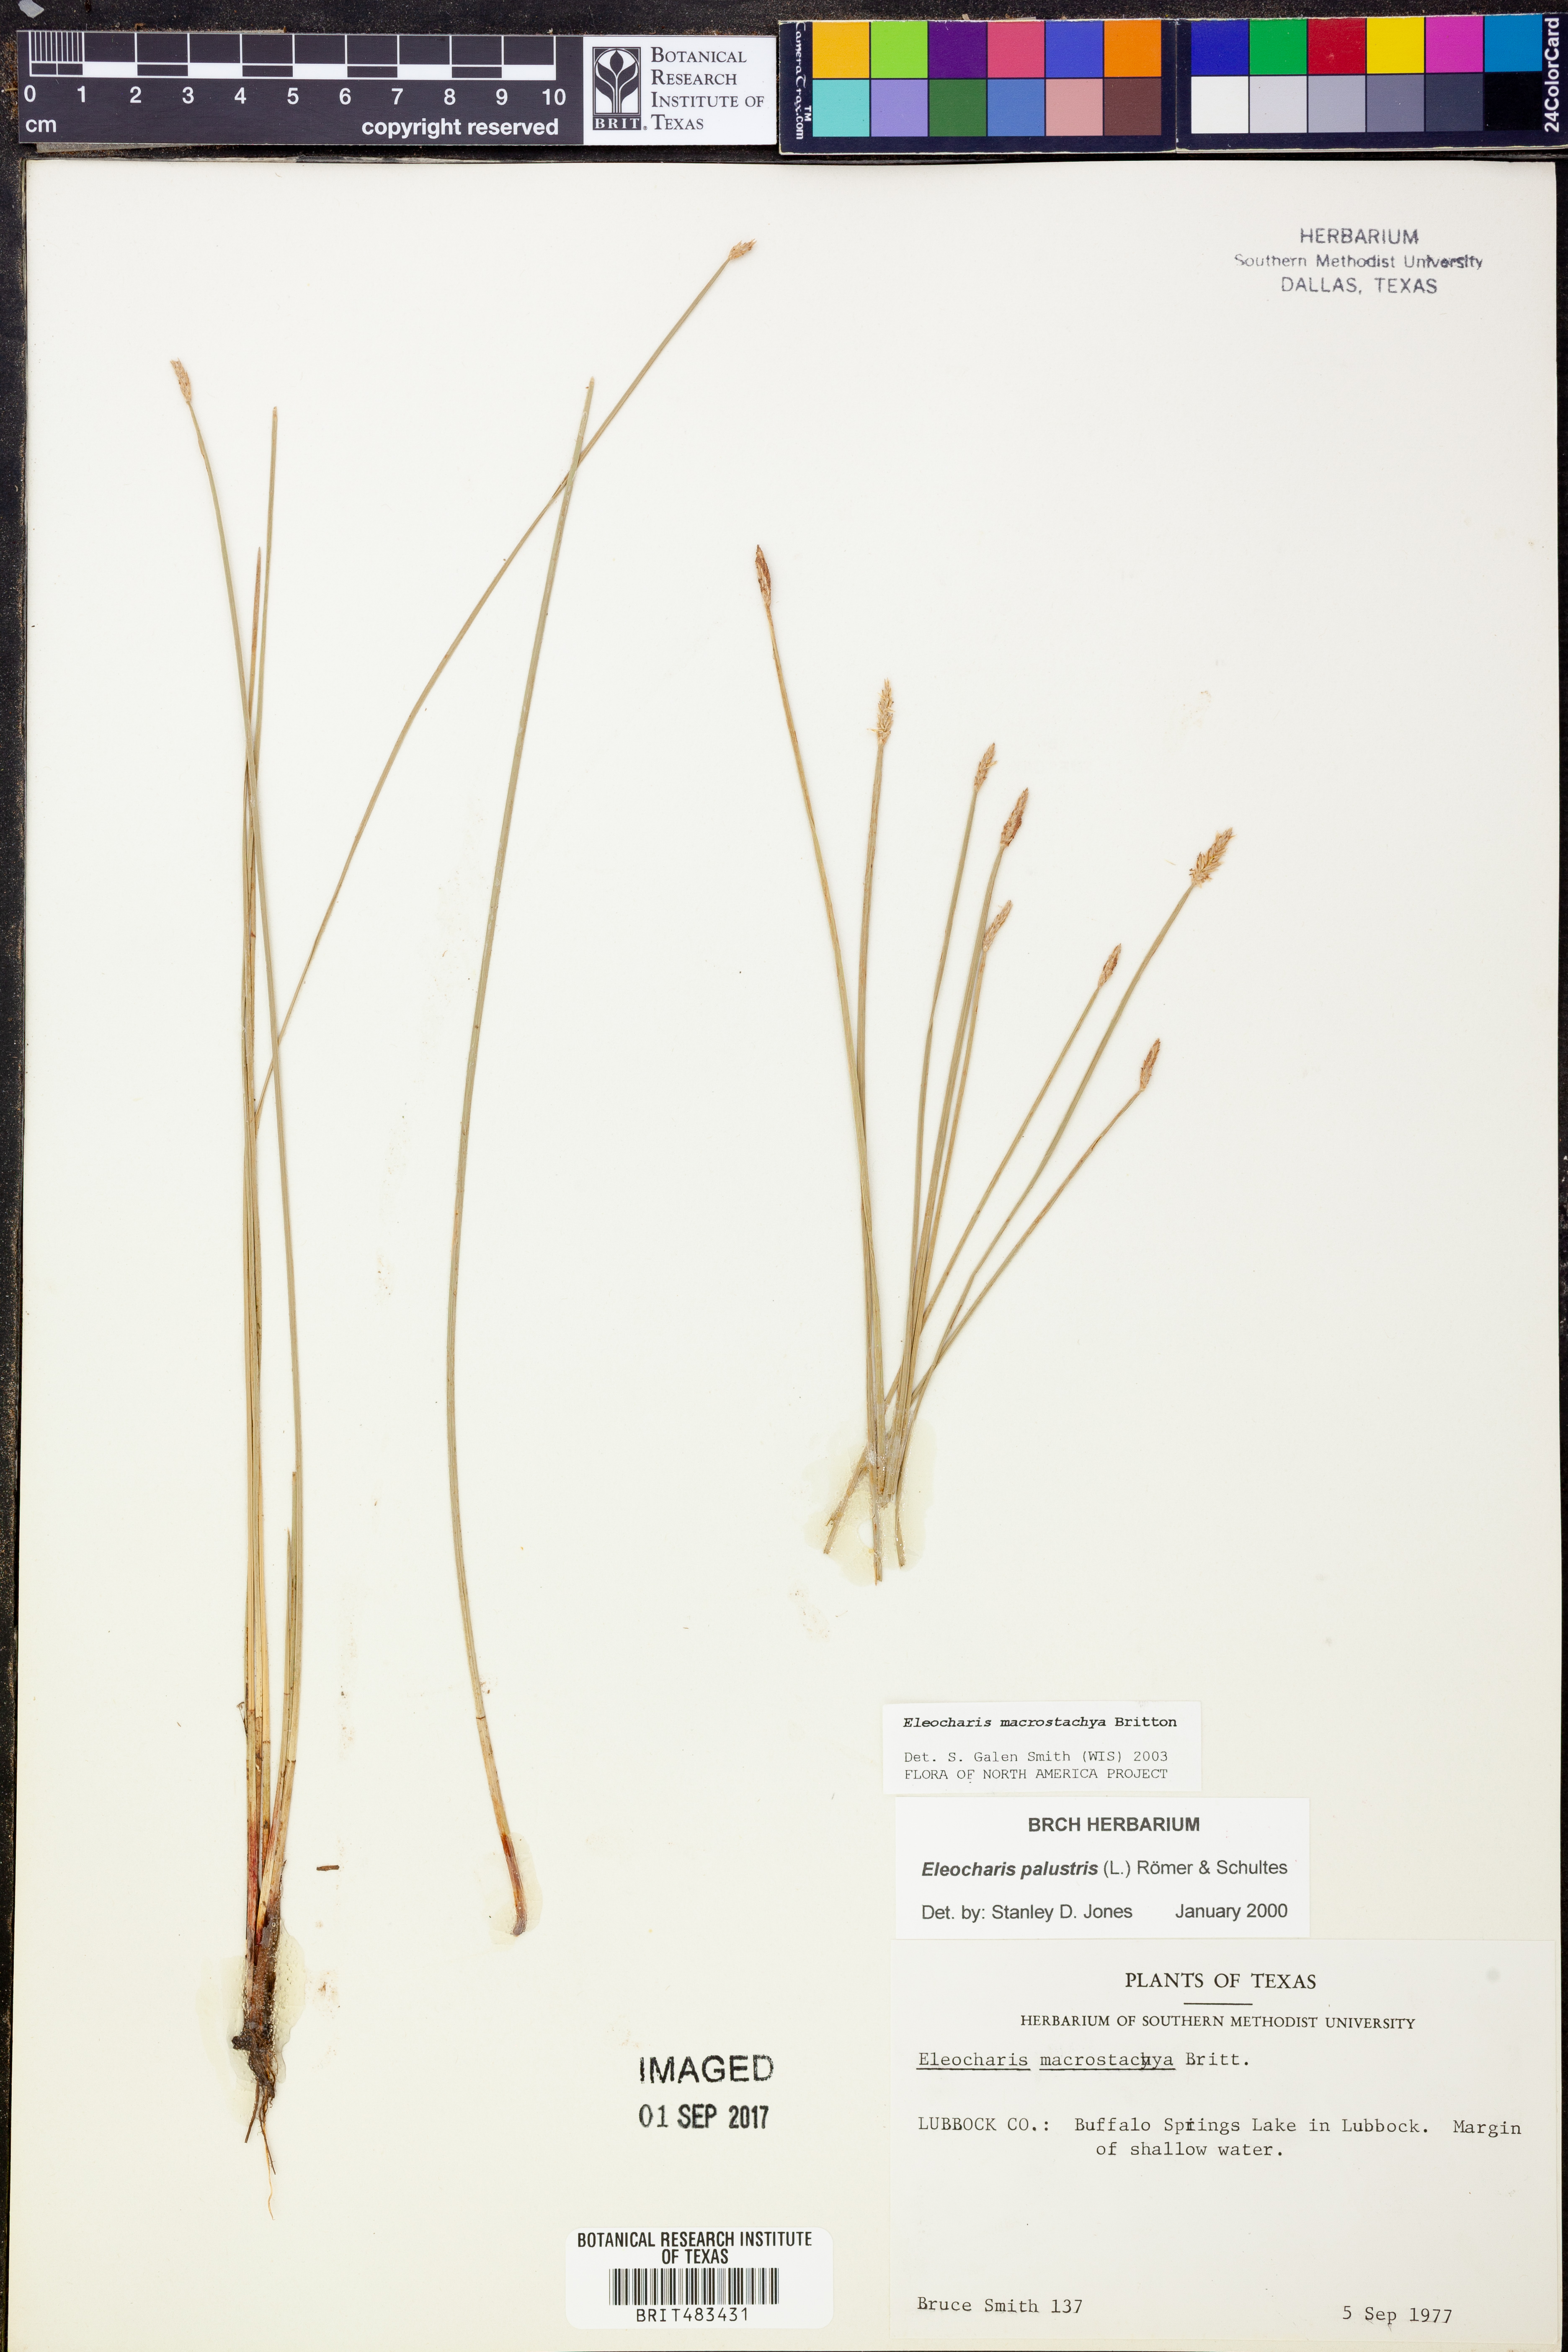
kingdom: Plantae
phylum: Tracheophyta
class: Liliopsida
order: Poales
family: Cyperaceae
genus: Eleocharis
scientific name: Eleocharis macrostachya
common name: Pale spikerush
